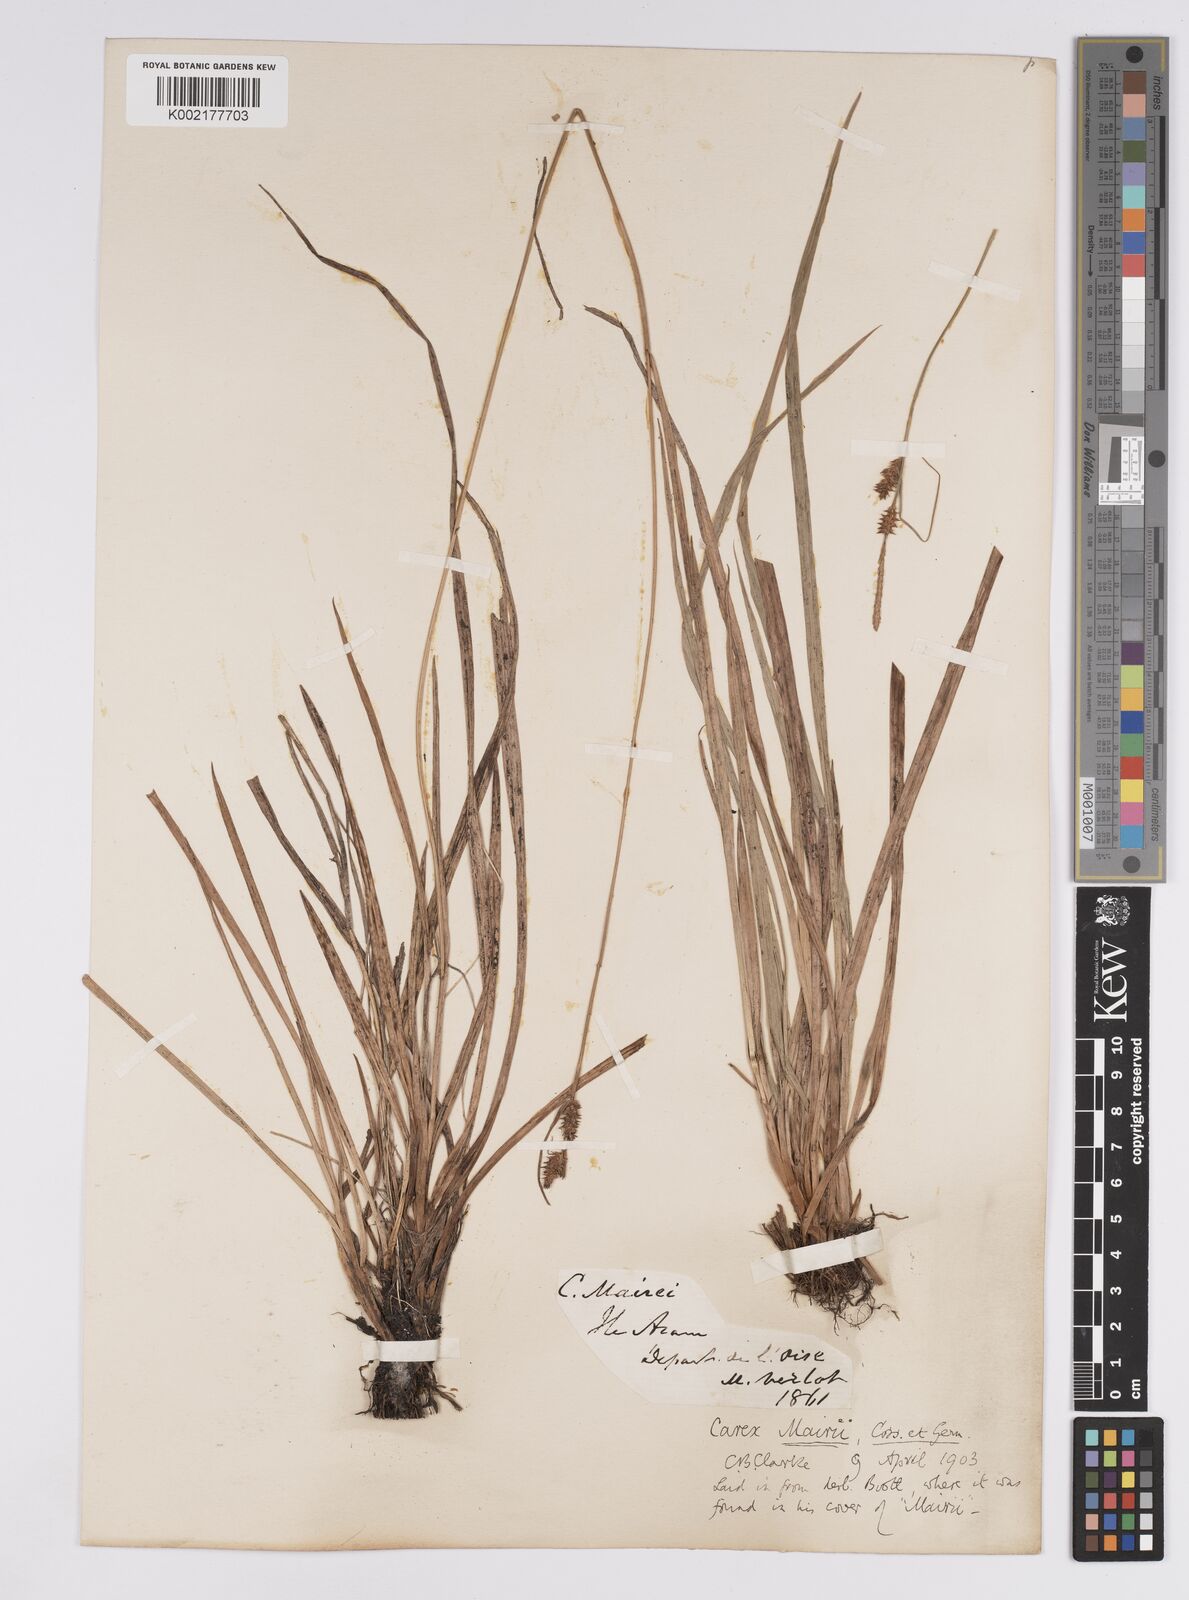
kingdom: Plantae
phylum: Tracheophyta
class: Liliopsida
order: Poales
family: Cyperaceae
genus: Carex
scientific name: Carex mairei
